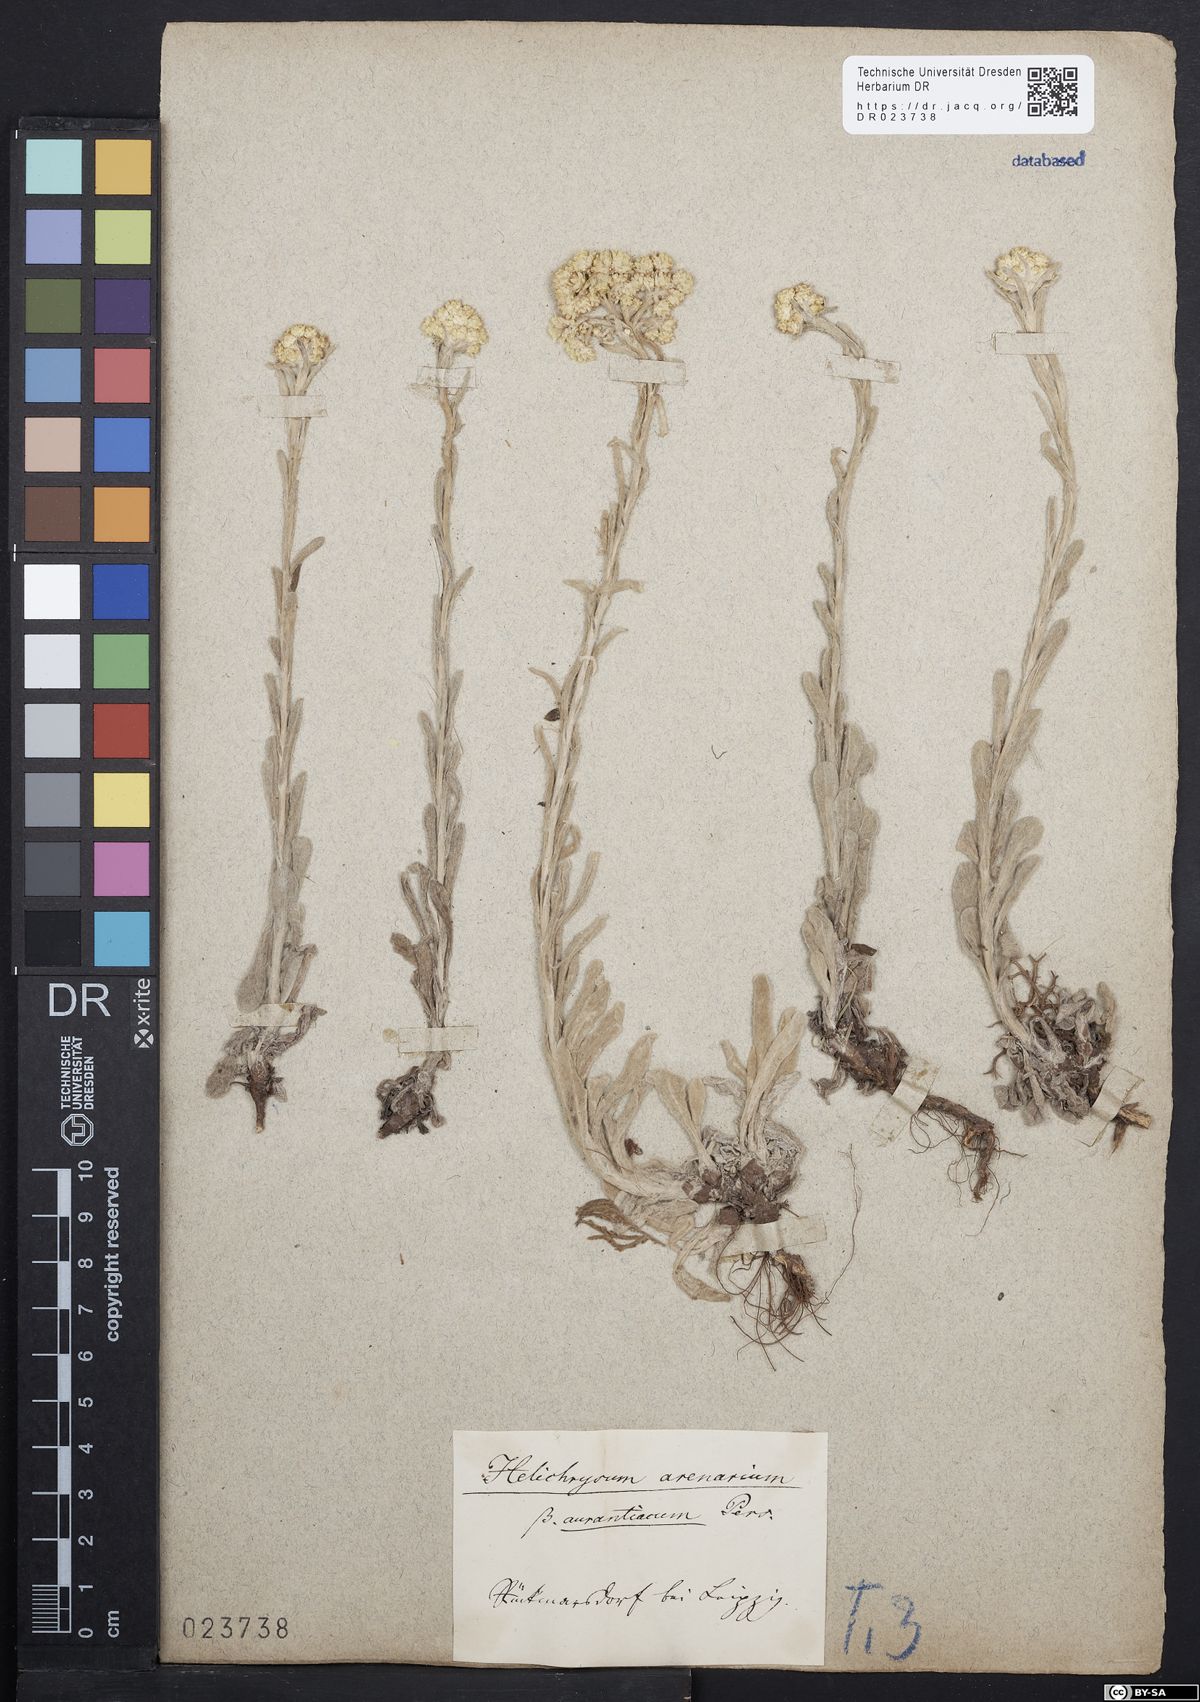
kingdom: Plantae
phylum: Tracheophyta
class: Magnoliopsida
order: Asterales
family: Asteraceae
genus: Helichrysum
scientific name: Helichrysum arenarium
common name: Strawflower
